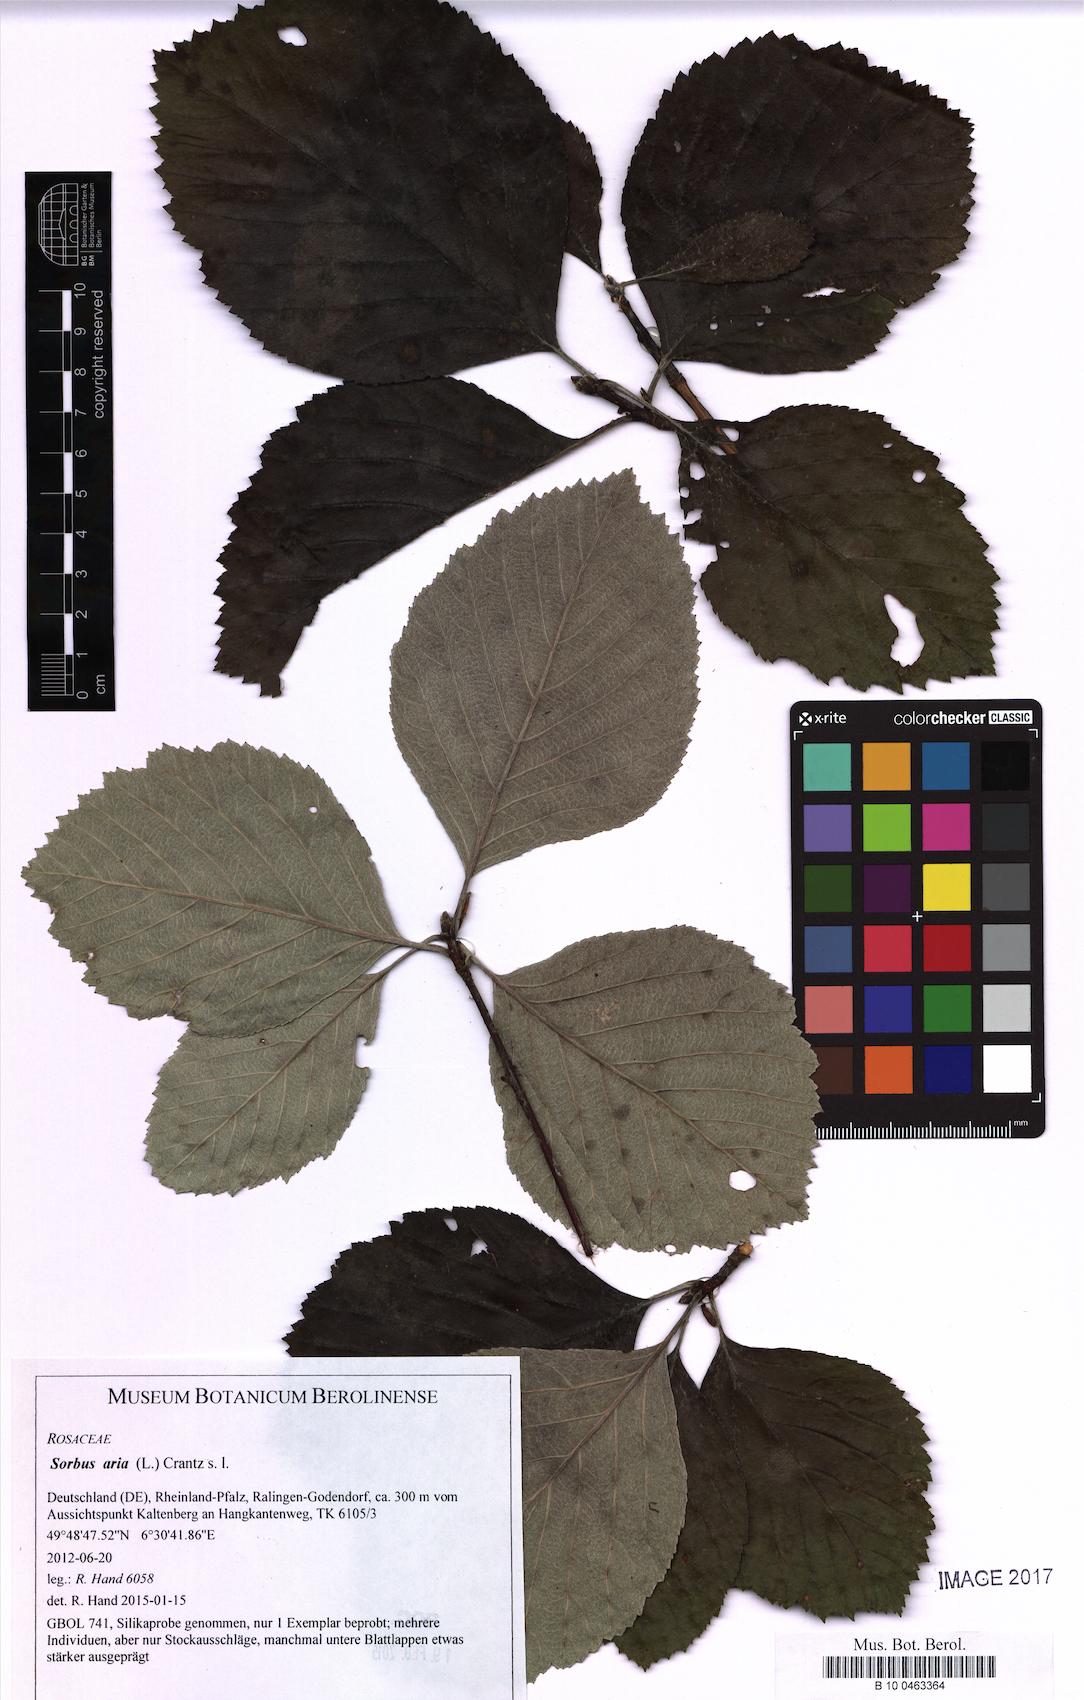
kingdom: Plantae
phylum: Tracheophyta
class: Magnoliopsida
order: Rosales
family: Rosaceae
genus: Aria
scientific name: Aria edulis
